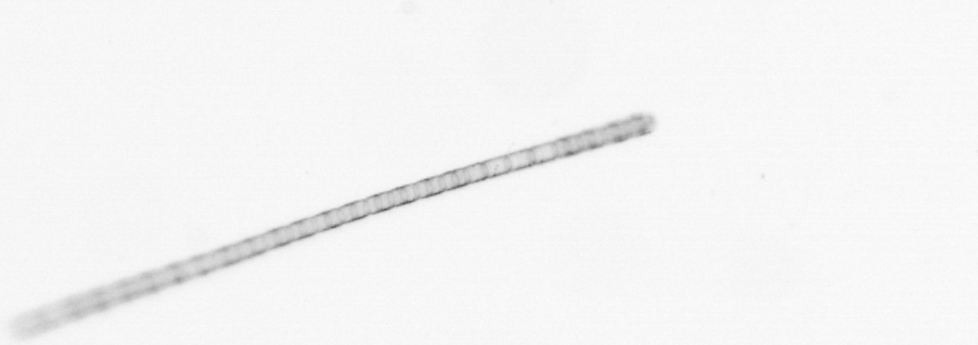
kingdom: Chromista
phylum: Ochrophyta
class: Bacillariophyceae
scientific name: Bacillariophyceae
